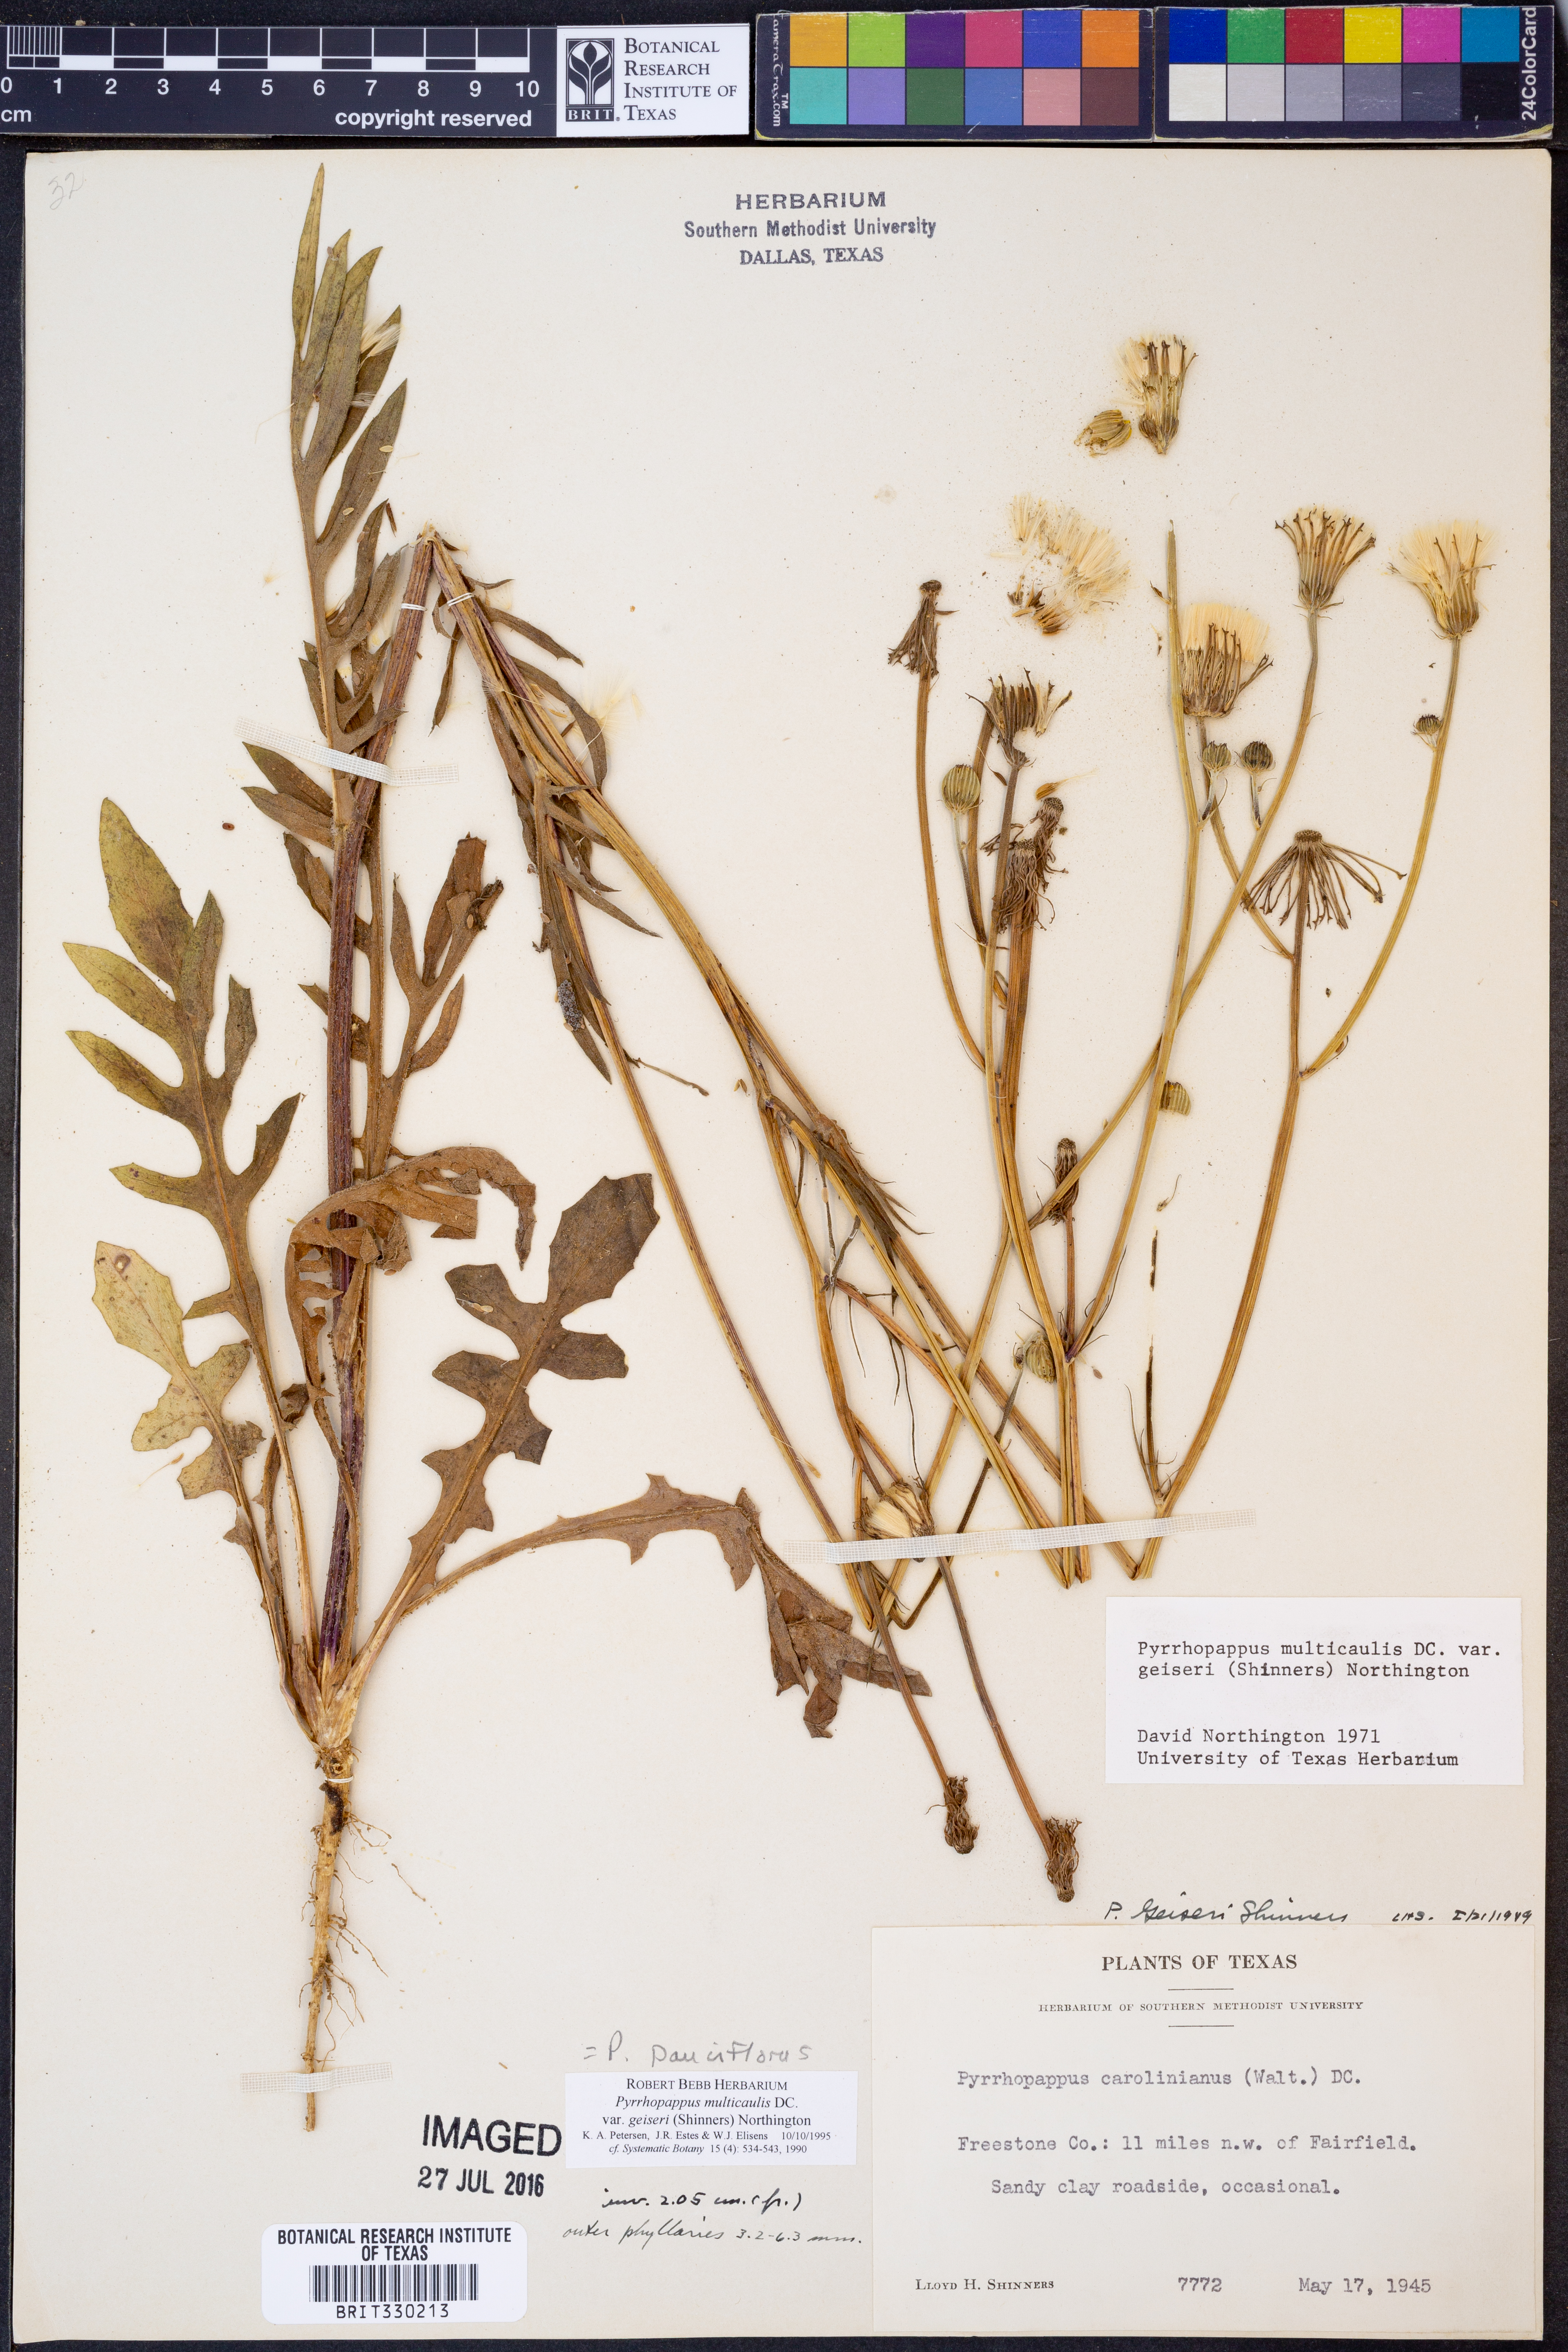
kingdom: Plantae
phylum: Tracheophyta
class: Magnoliopsida
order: Asterales
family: Asteraceae
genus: Pyrrhopappus
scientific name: Pyrrhopappus pauciflorus
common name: Texas false dandelion
